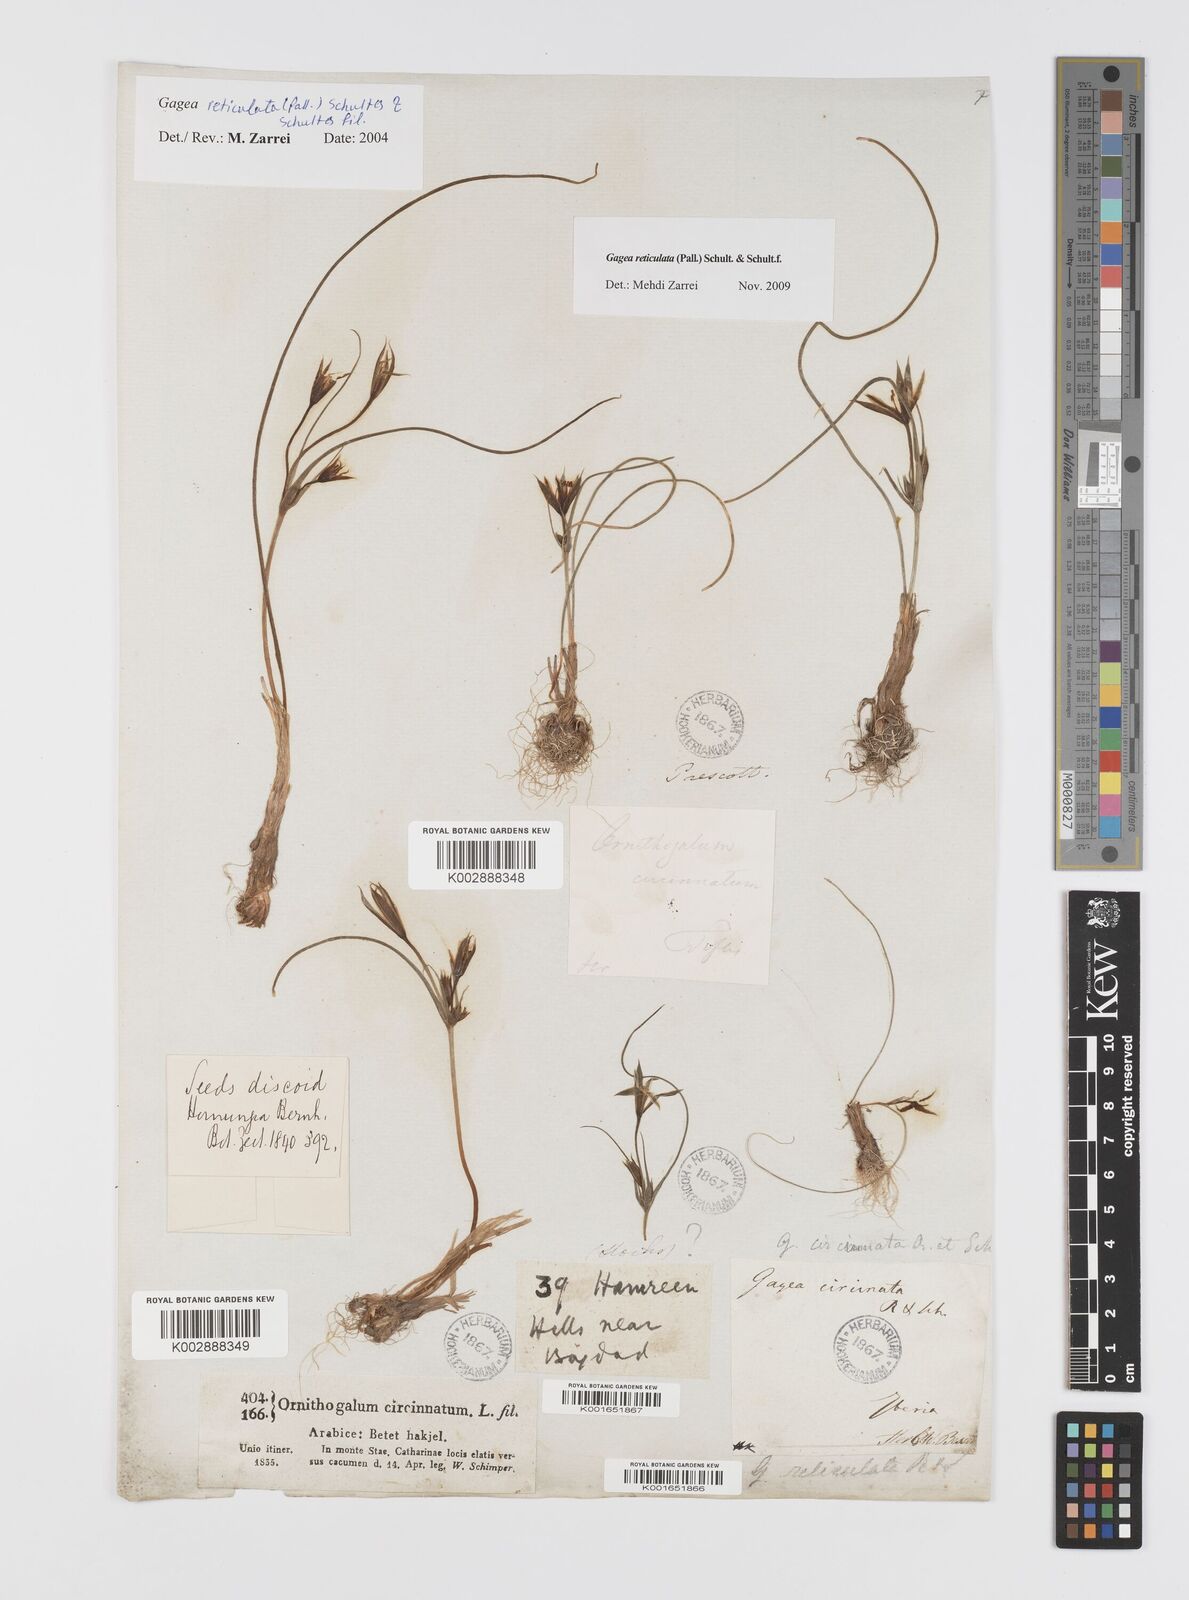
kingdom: Plantae
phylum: Tracheophyta
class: Liliopsida
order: Liliales
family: Liliaceae
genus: Gagea
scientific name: Gagea reticulata
